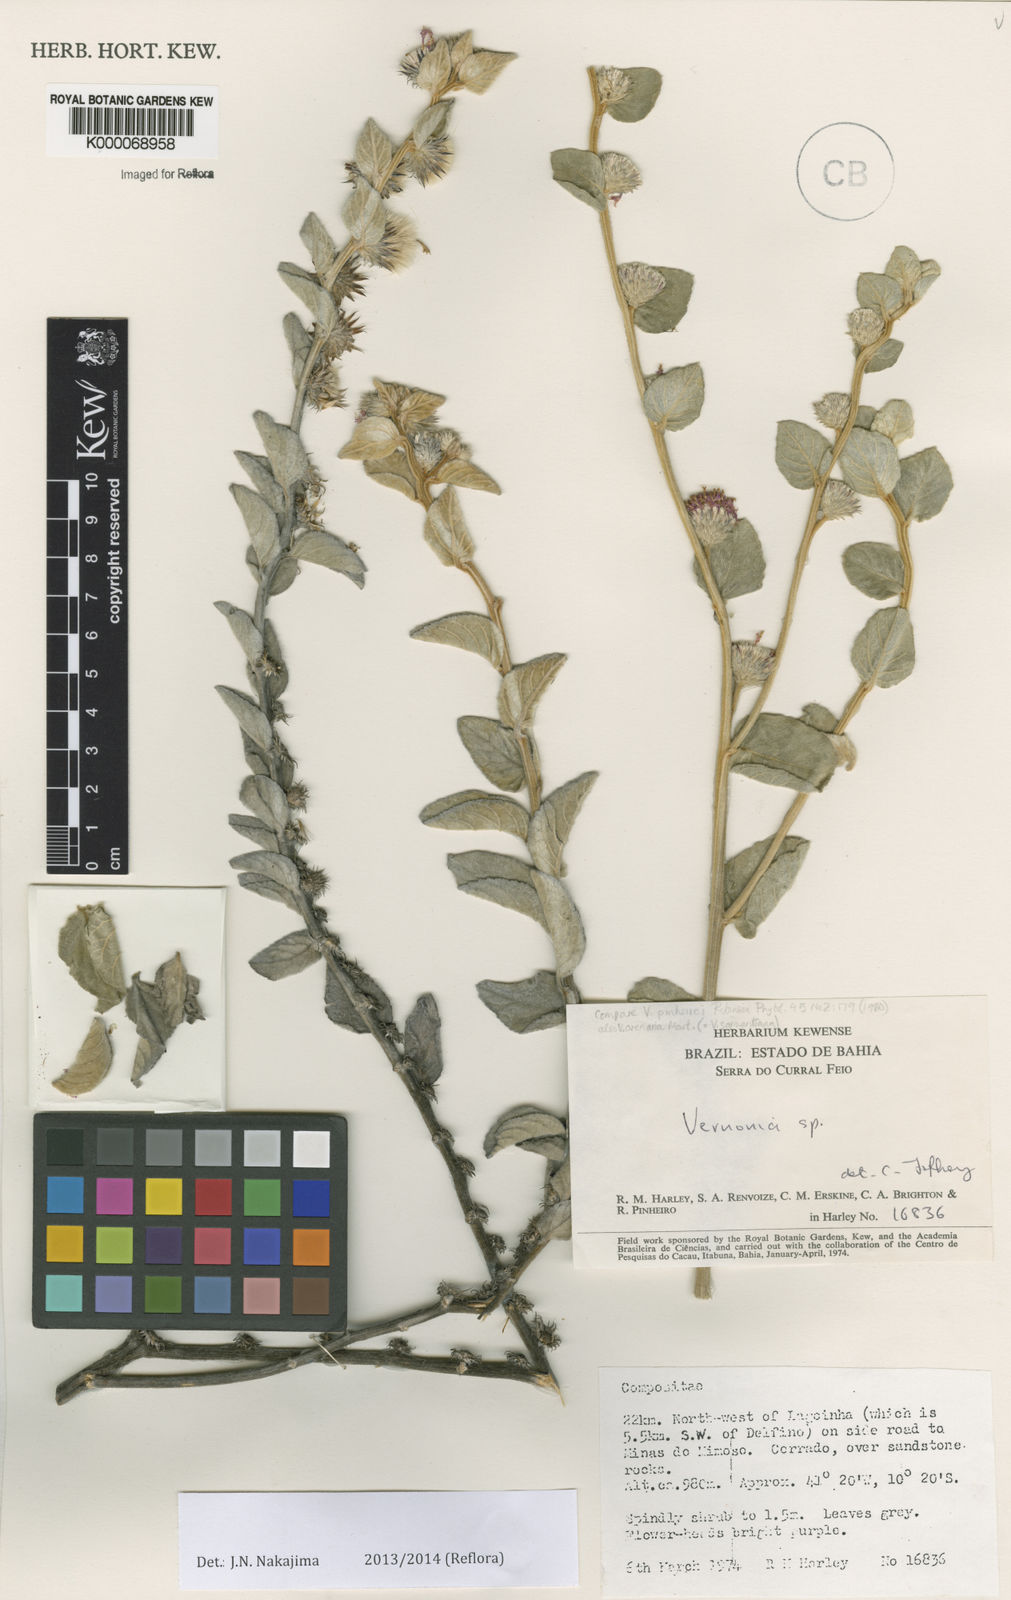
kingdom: Plantae
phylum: Tracheophyta
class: Magnoliopsida
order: Asterales
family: Asteraceae
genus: Vernonia
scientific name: Vernonia
